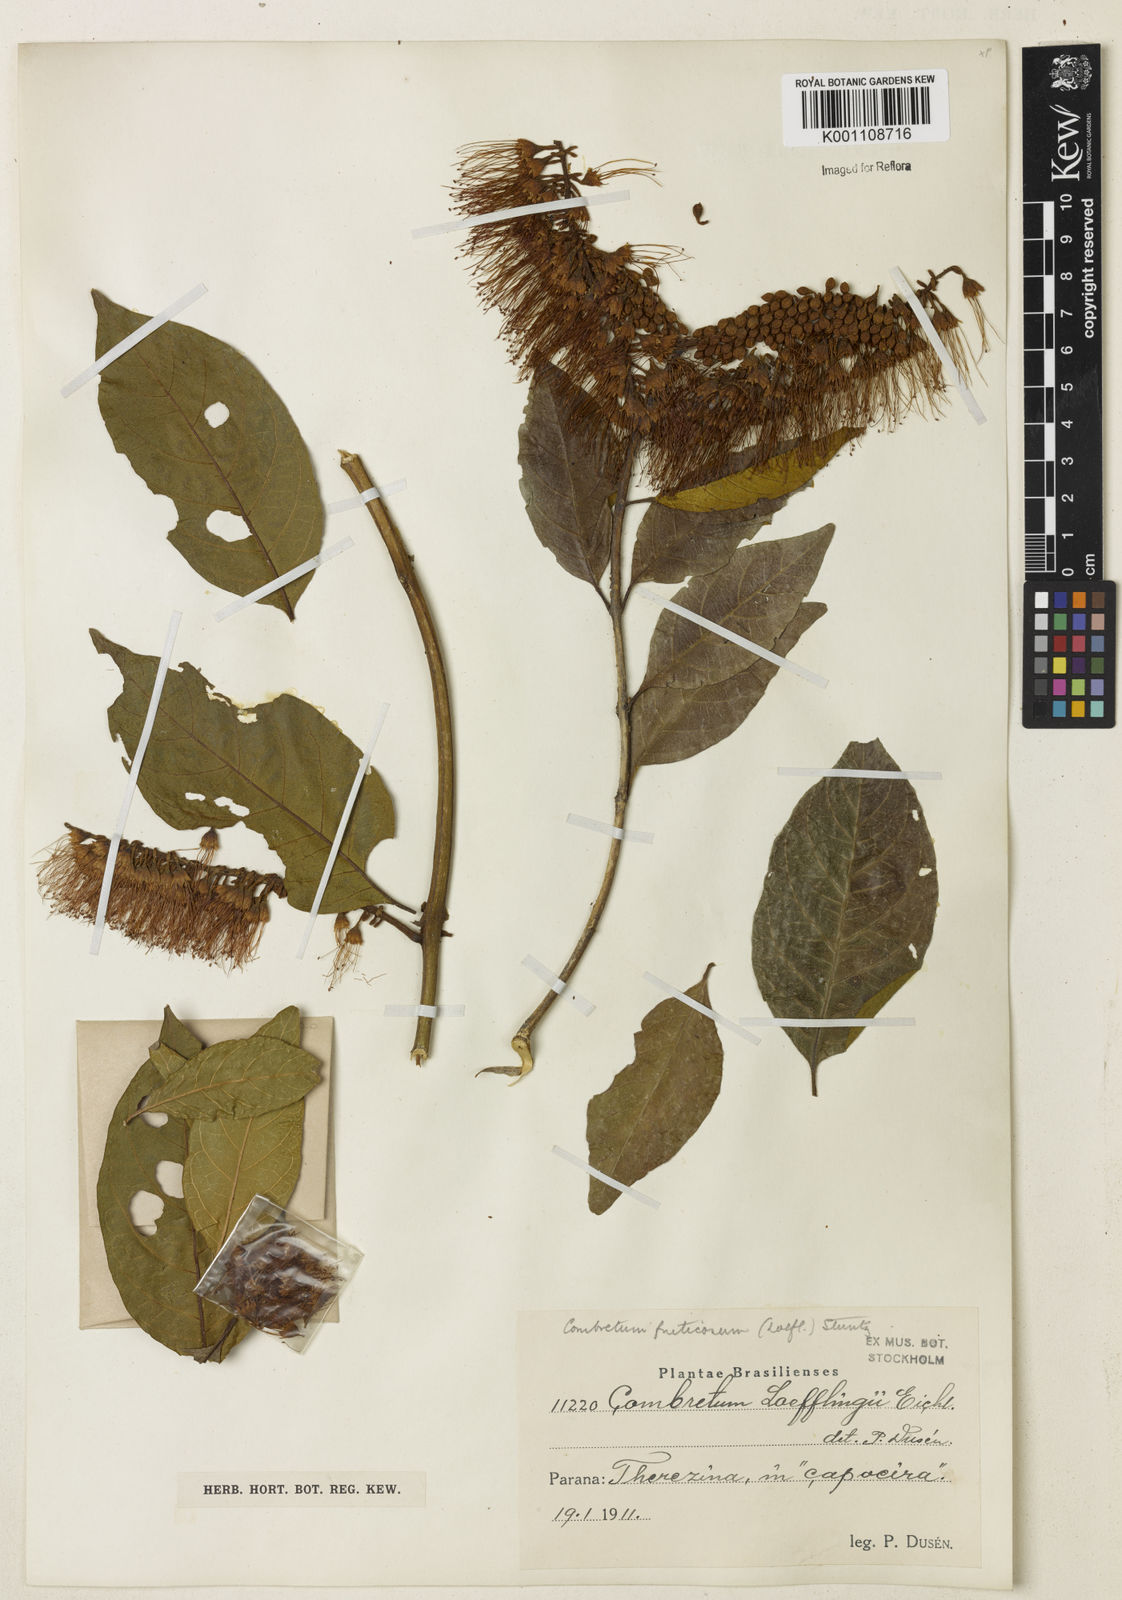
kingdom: Plantae
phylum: Tracheophyta
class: Magnoliopsida
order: Myrtales
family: Combretaceae
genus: Combretum
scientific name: Combretum fruticosum
